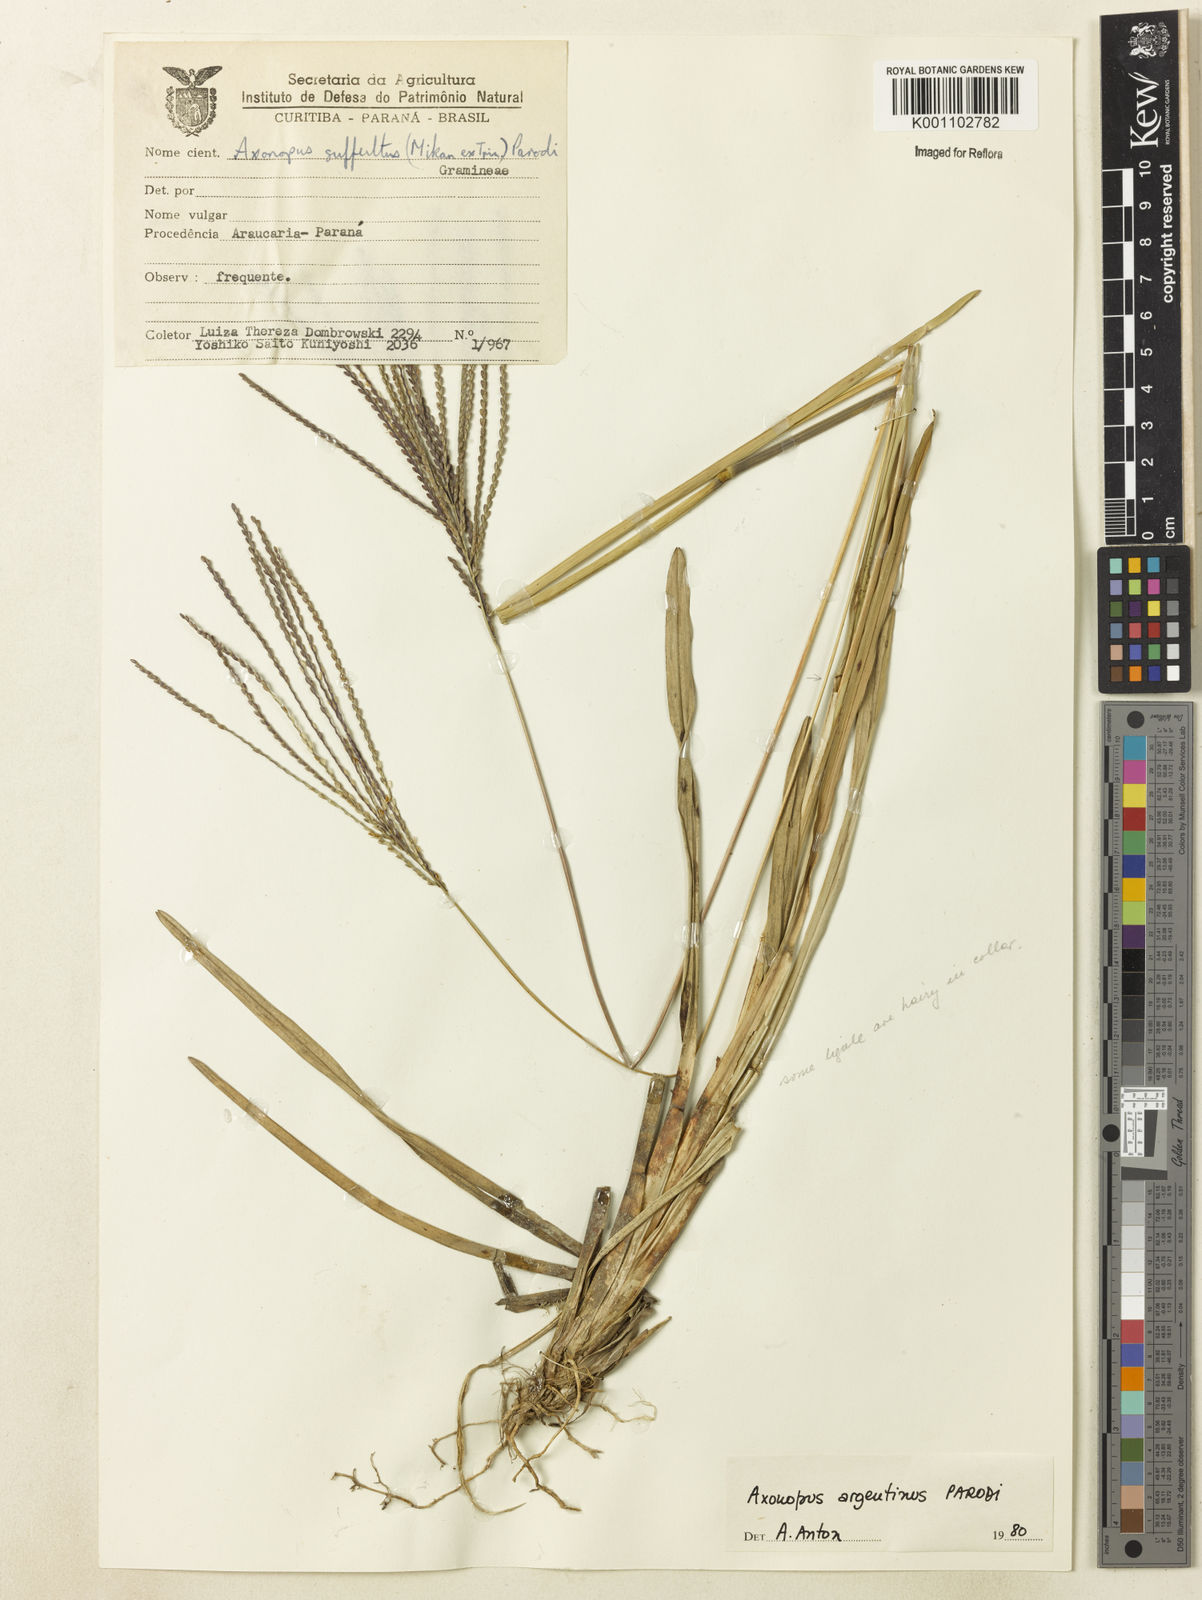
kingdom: Plantae
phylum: Tracheophyta
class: Liliopsida
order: Poales
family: Poaceae
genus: Axonopus
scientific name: Axonopus argentinus
